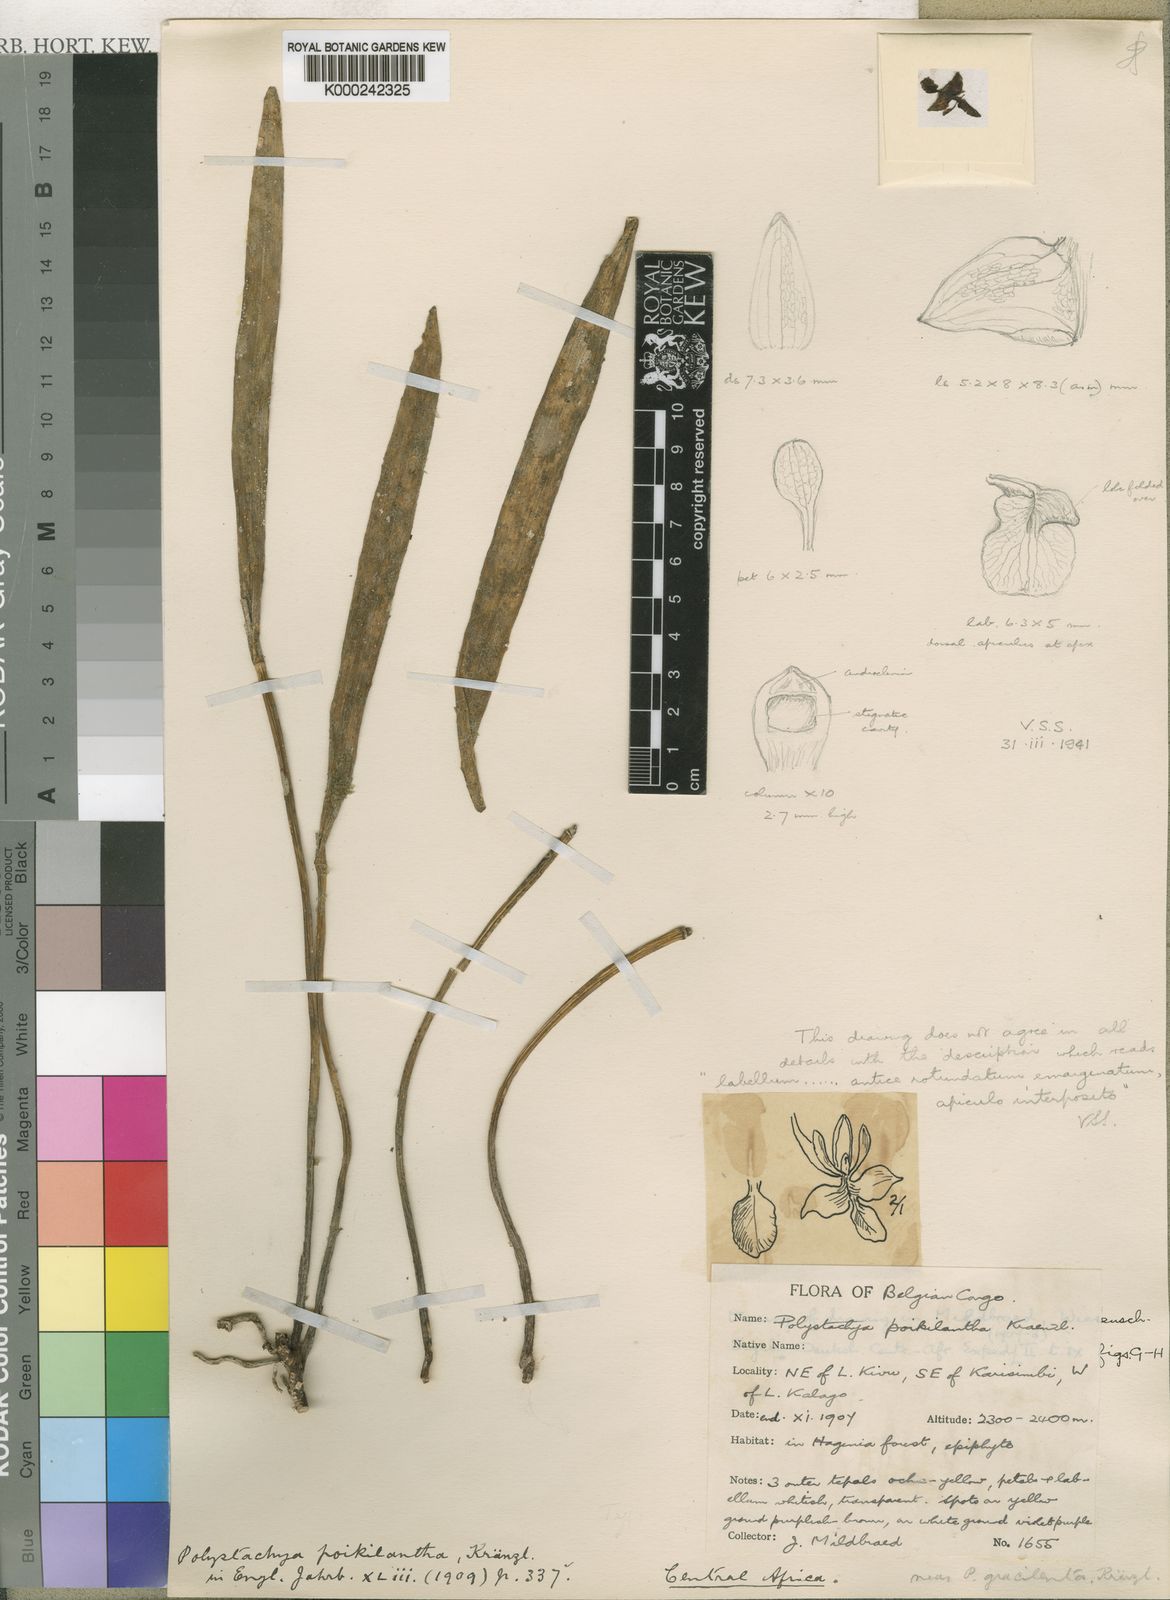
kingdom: Plantae
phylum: Tracheophyta
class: Liliopsida
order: Asparagales
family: Orchidaceae
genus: Polystachya
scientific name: Polystachya poikilantha
